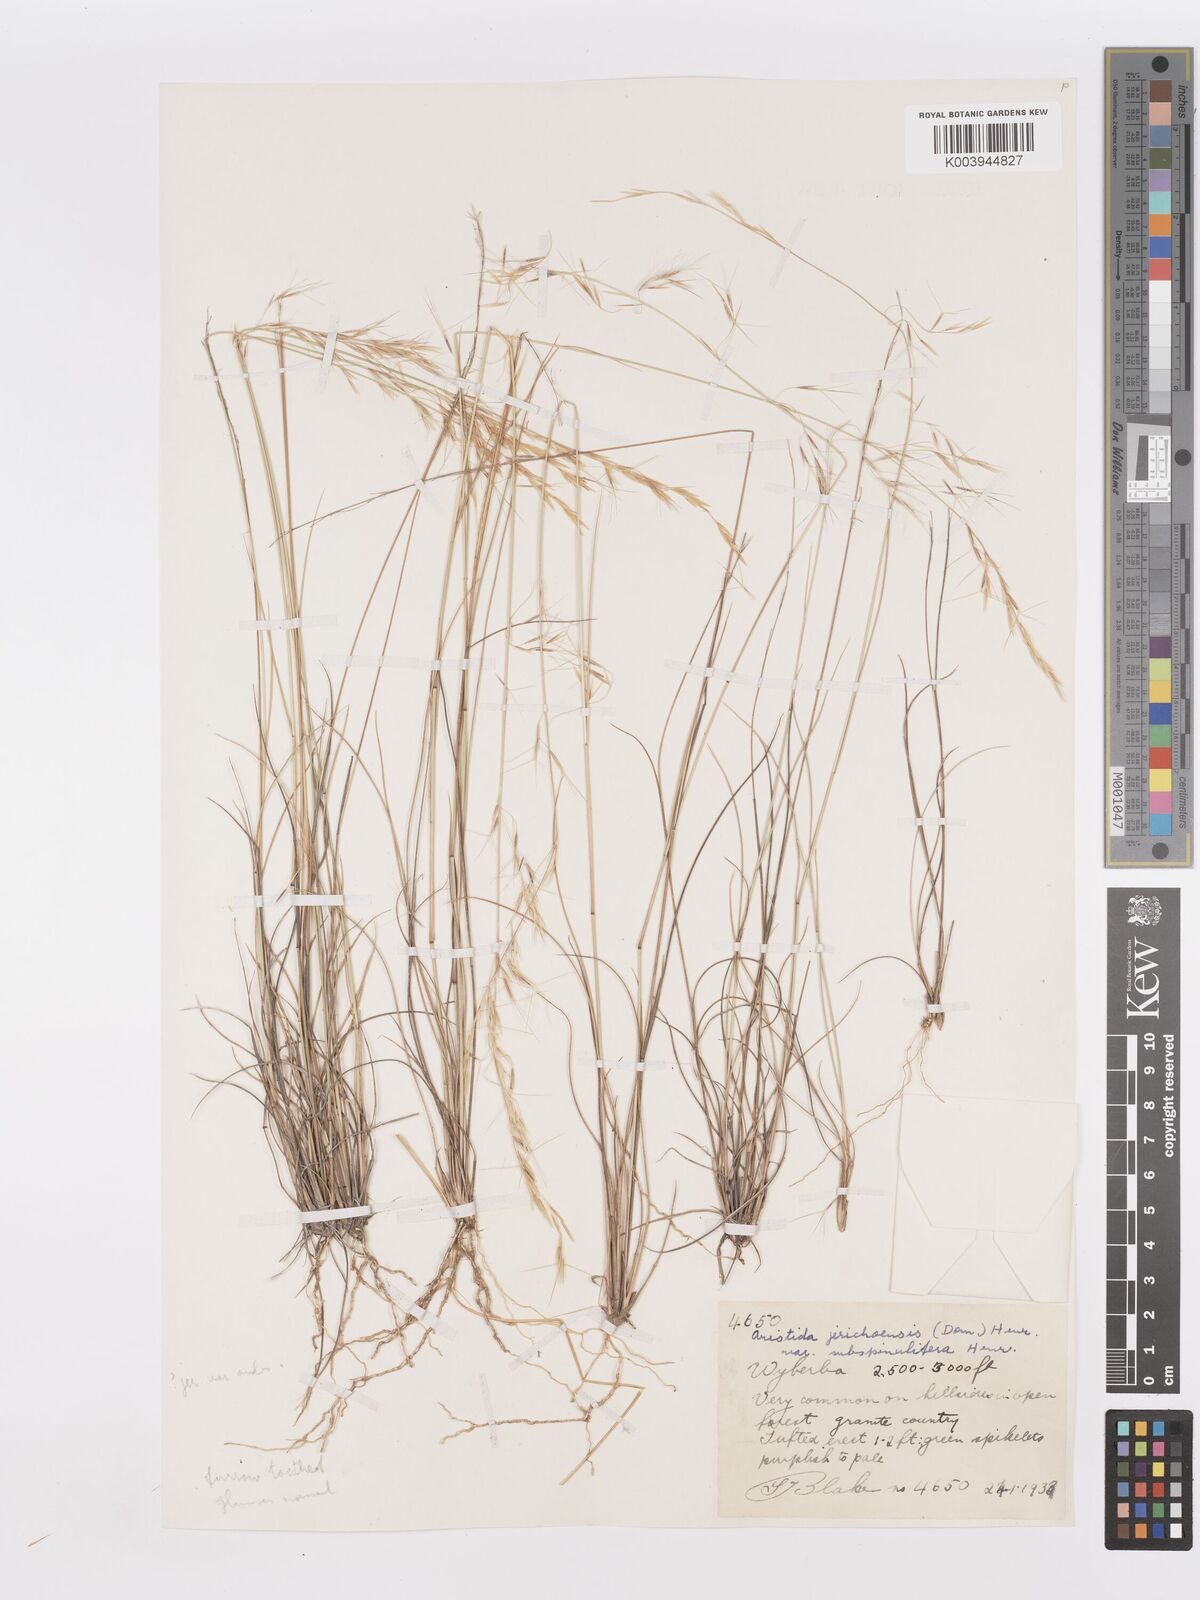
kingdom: Plantae
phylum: Tracheophyta
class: Liliopsida
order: Poales
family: Poaceae
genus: Aristida
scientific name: Aristida jerichoensis
